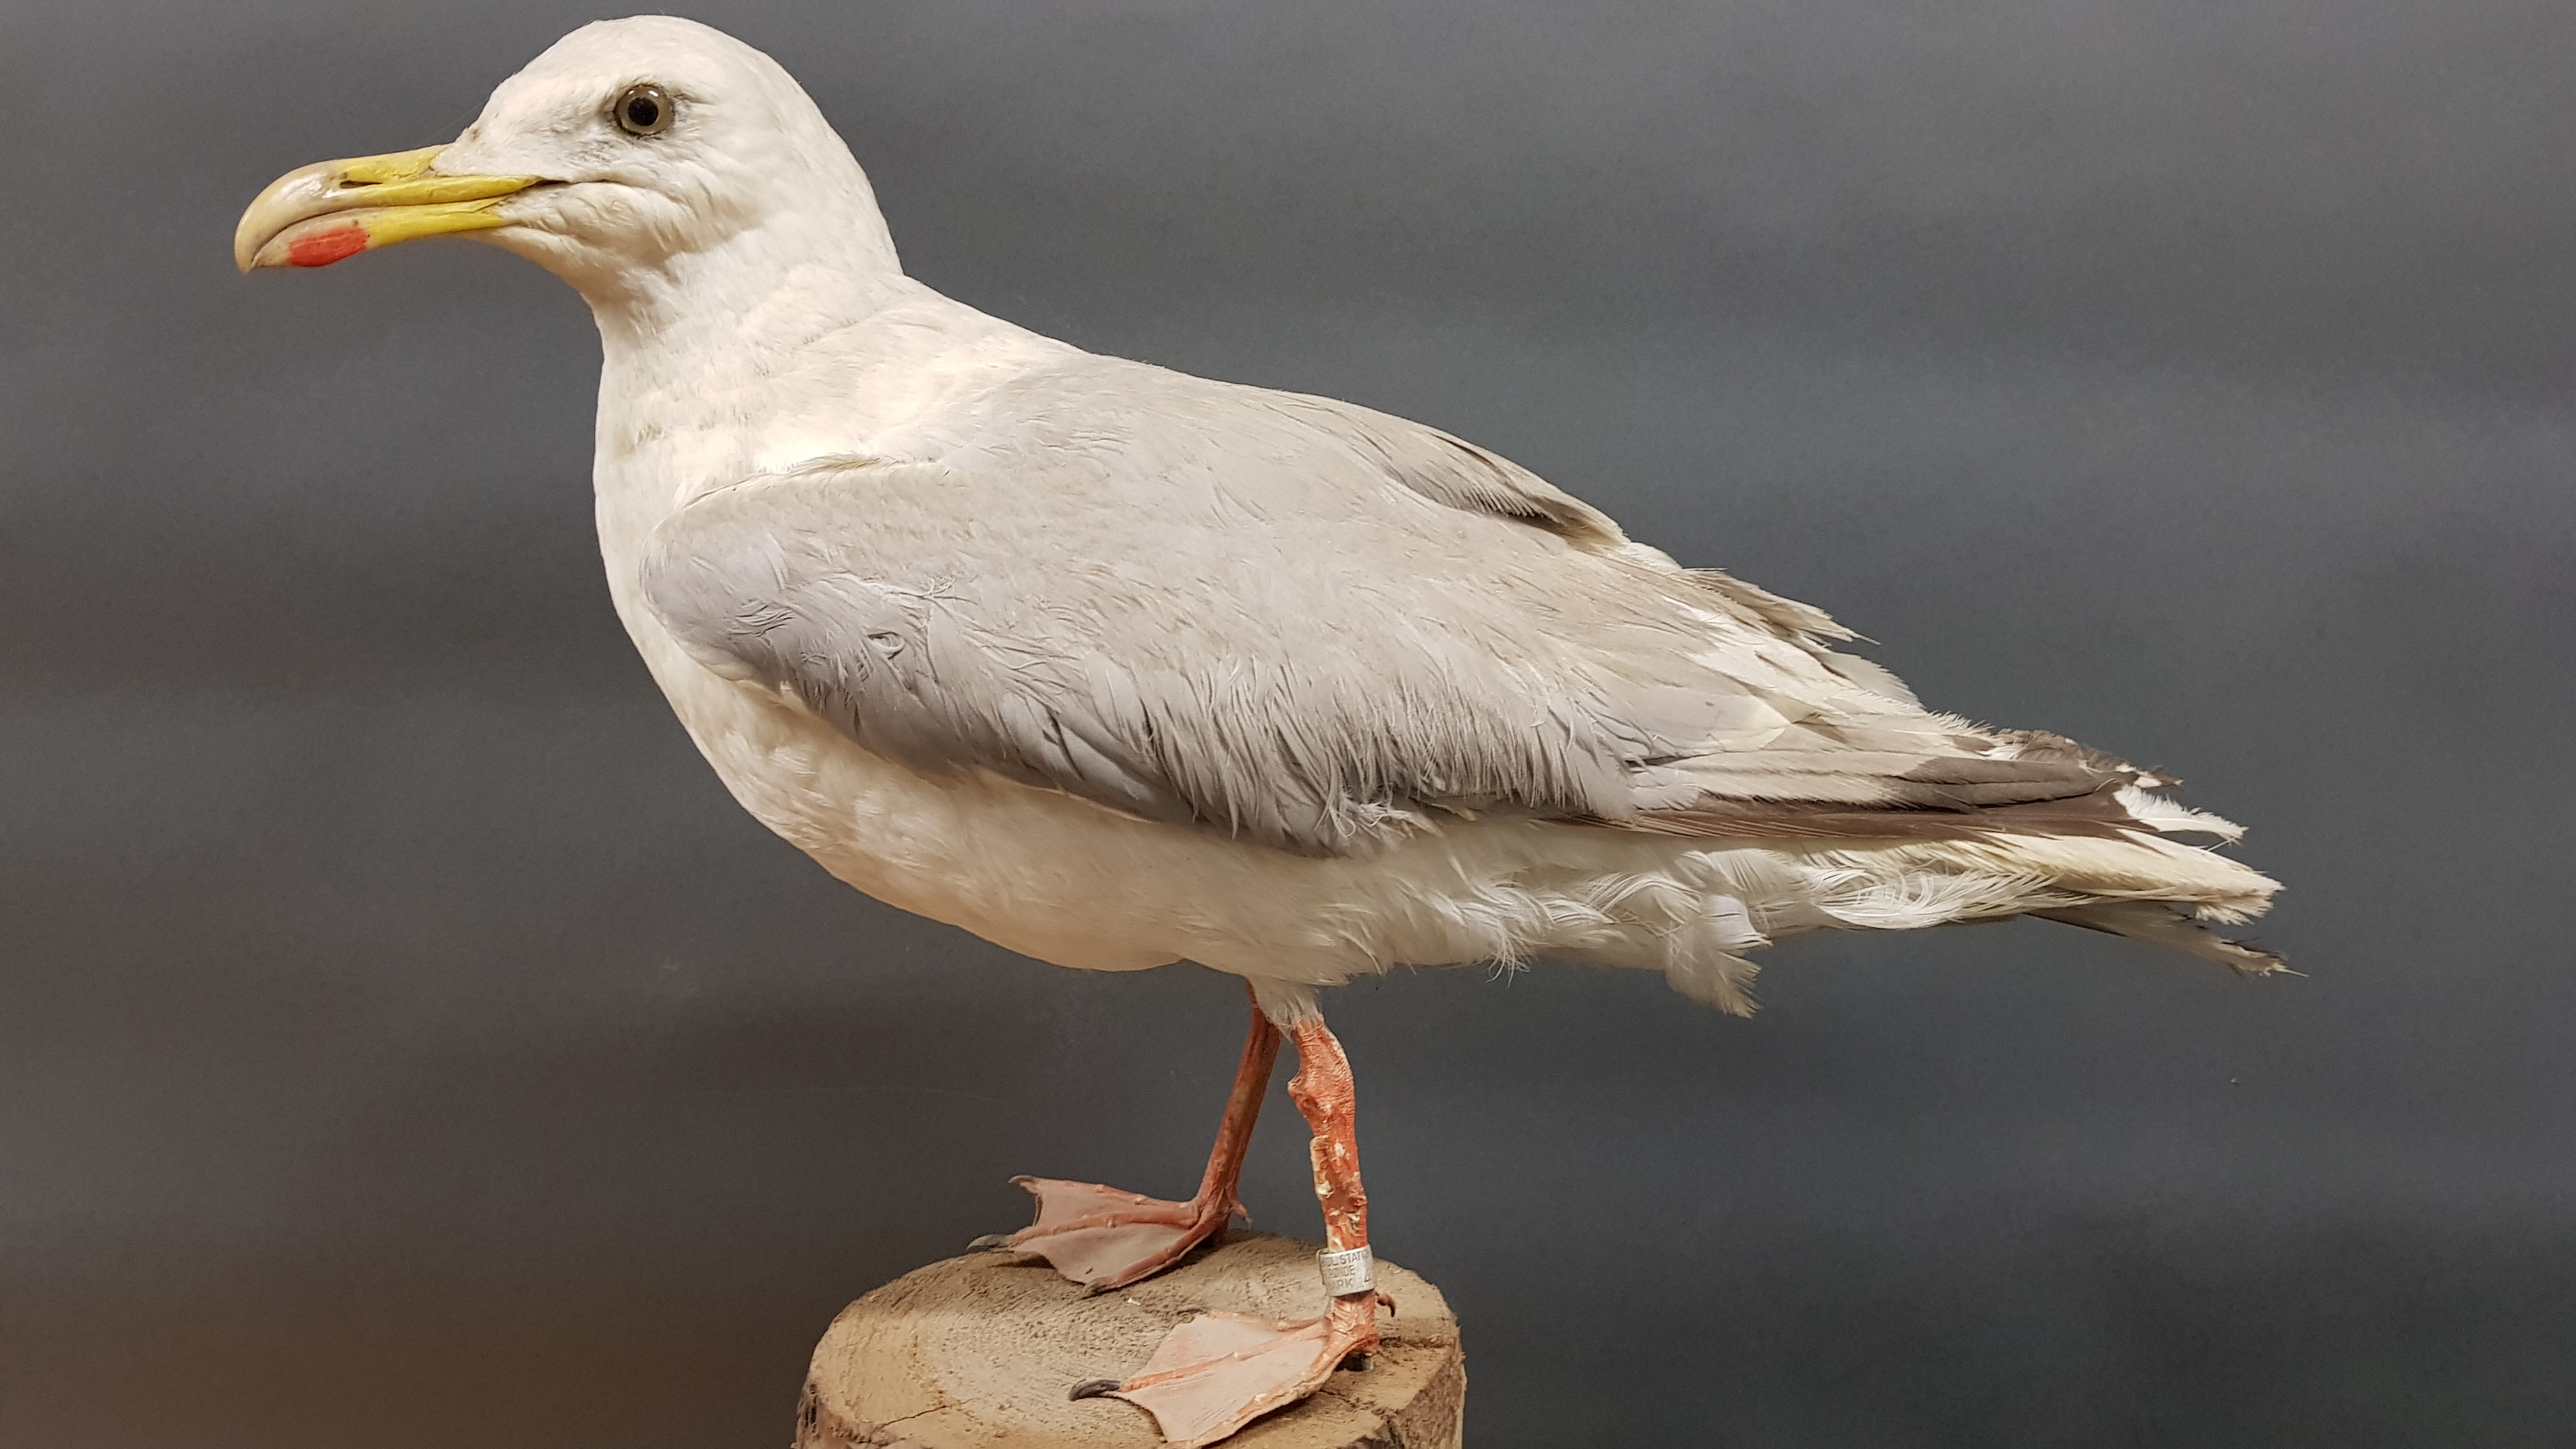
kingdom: Animalia
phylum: Chordata
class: Aves
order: Charadriiformes
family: Laridae
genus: Larus
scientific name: Larus argentatus
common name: Herring gull
